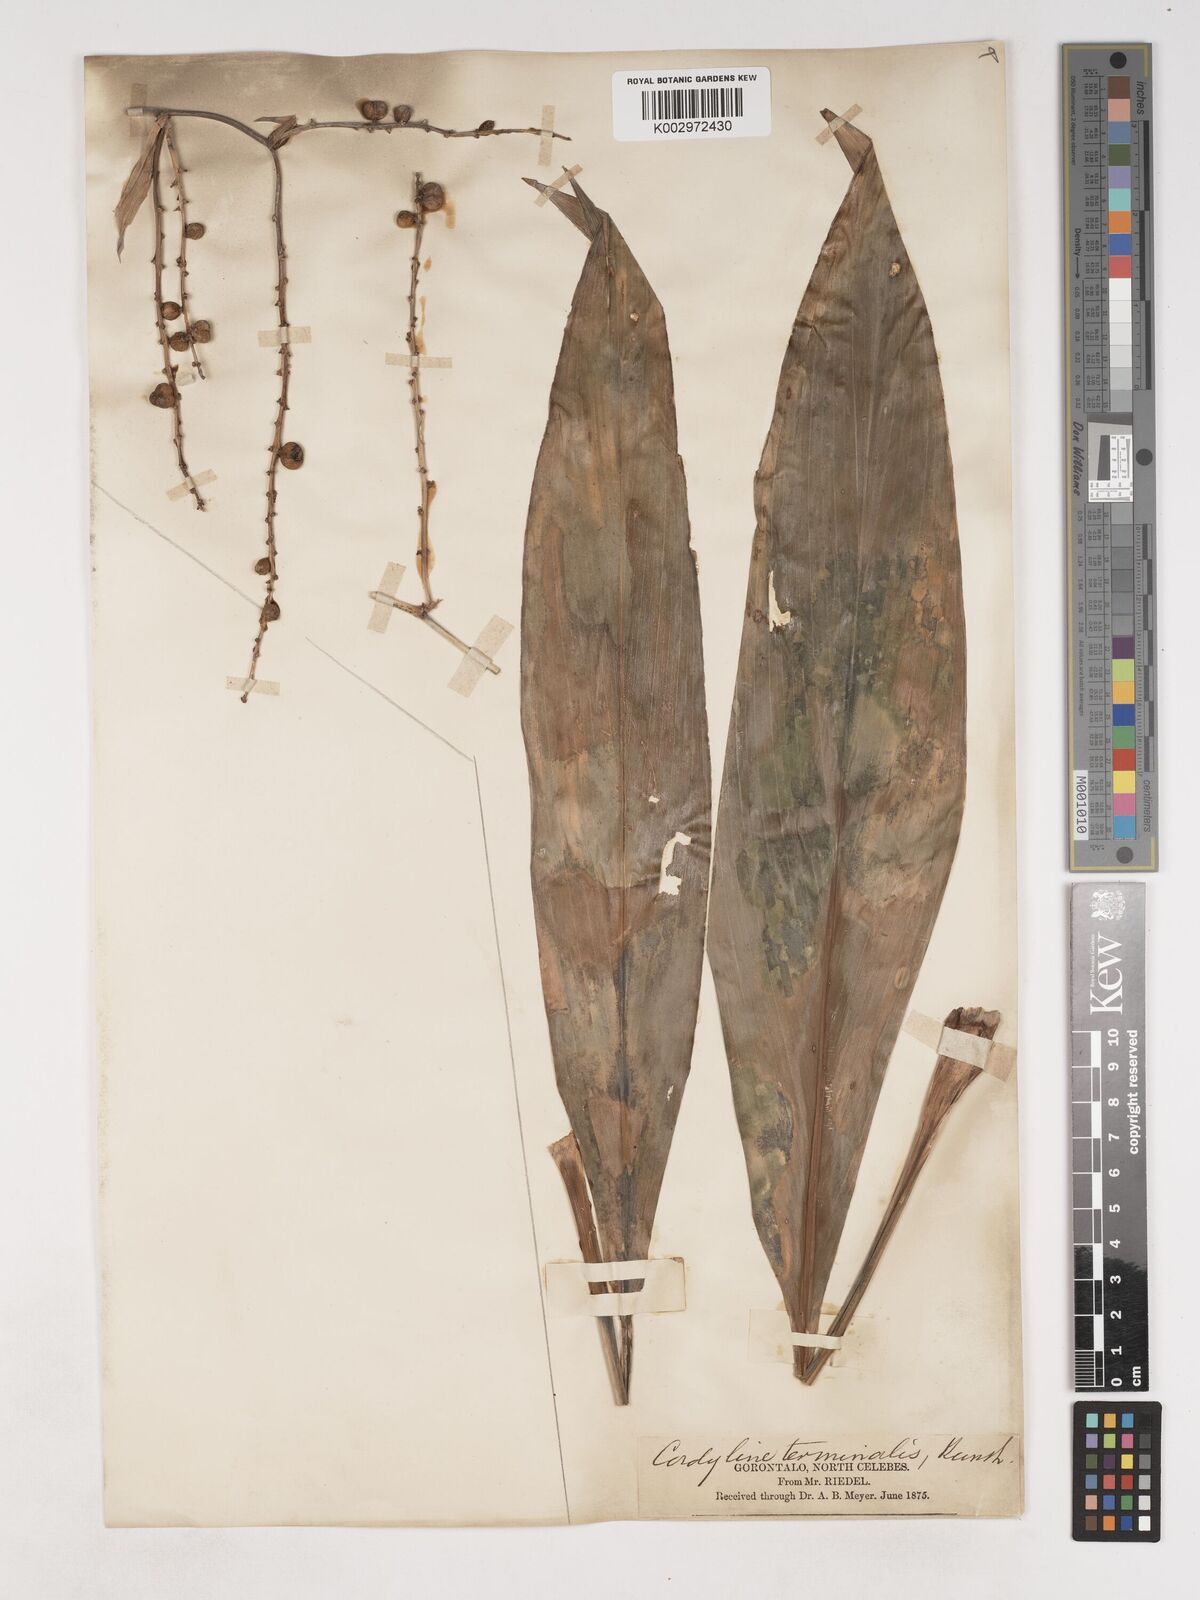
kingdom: Plantae
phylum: Tracheophyta
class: Liliopsida
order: Asparagales
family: Asparagaceae
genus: Cordyline
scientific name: Cordyline
